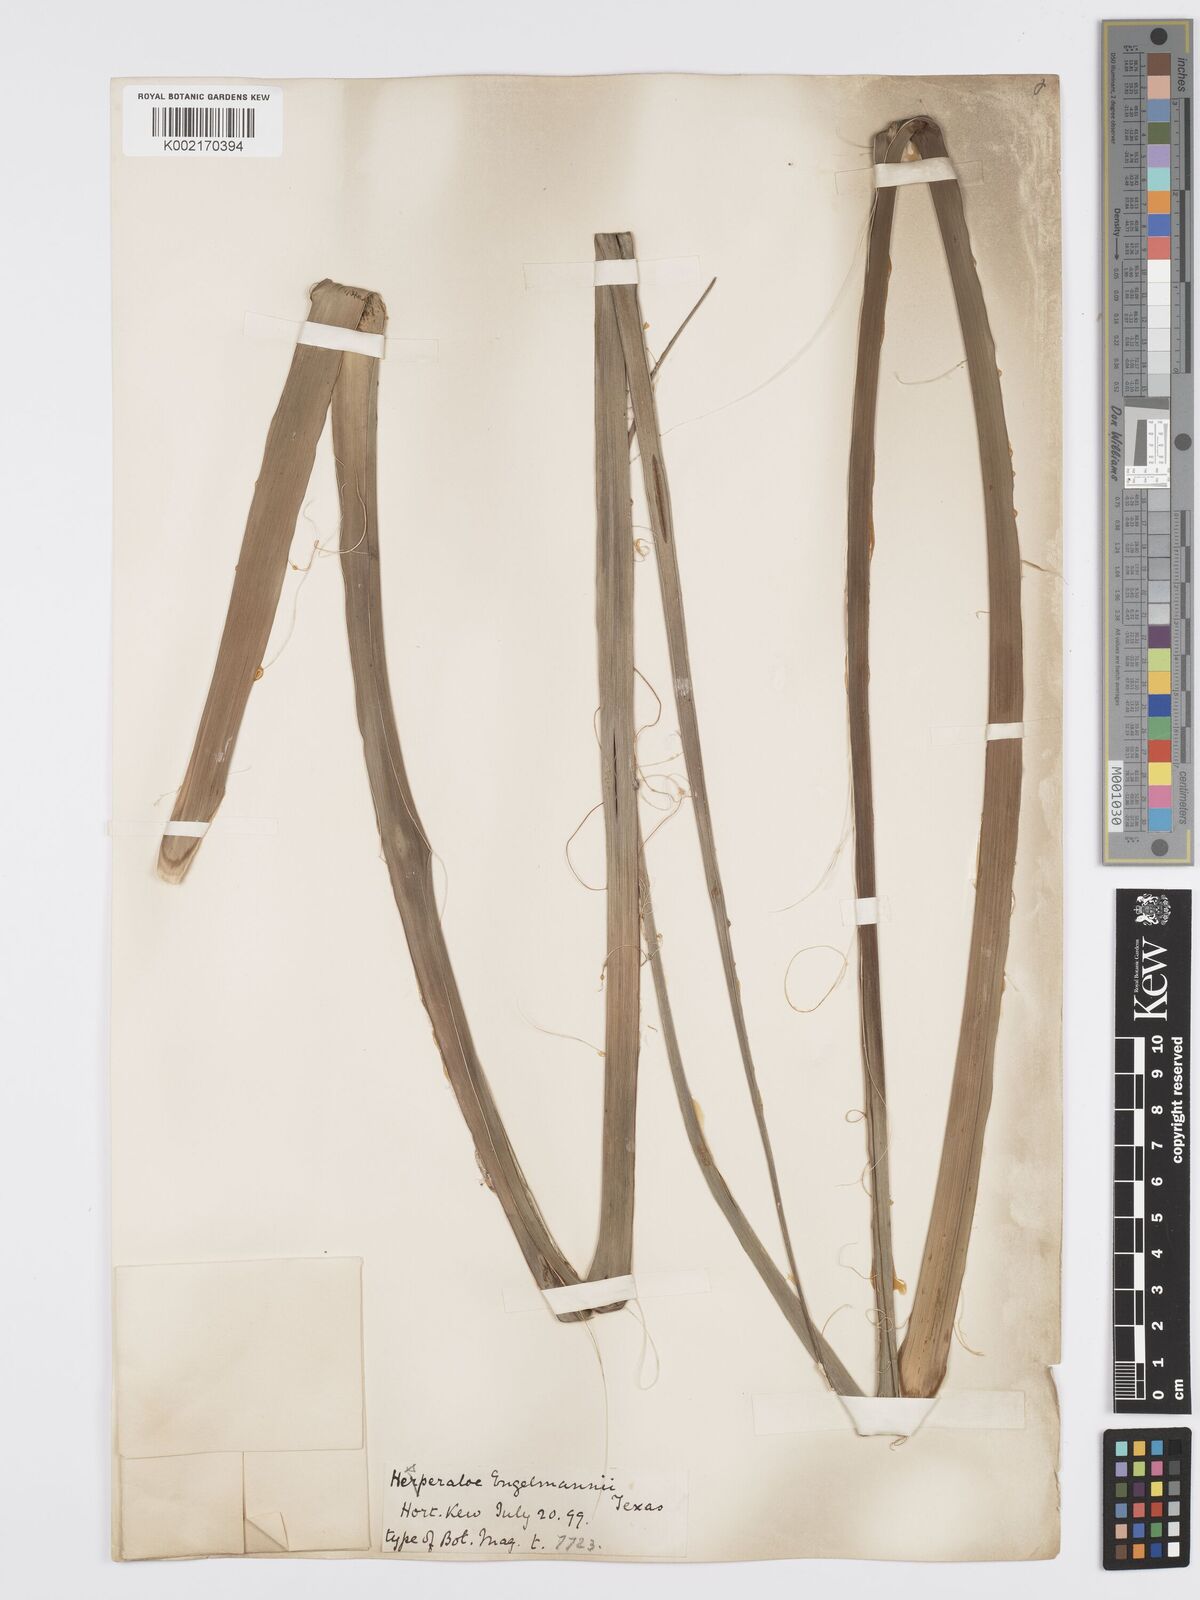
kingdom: Plantae
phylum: Tracheophyta
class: Liliopsida
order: Asparagales
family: Asparagaceae
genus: Hesperaloe
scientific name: Hesperaloe engelmannii
